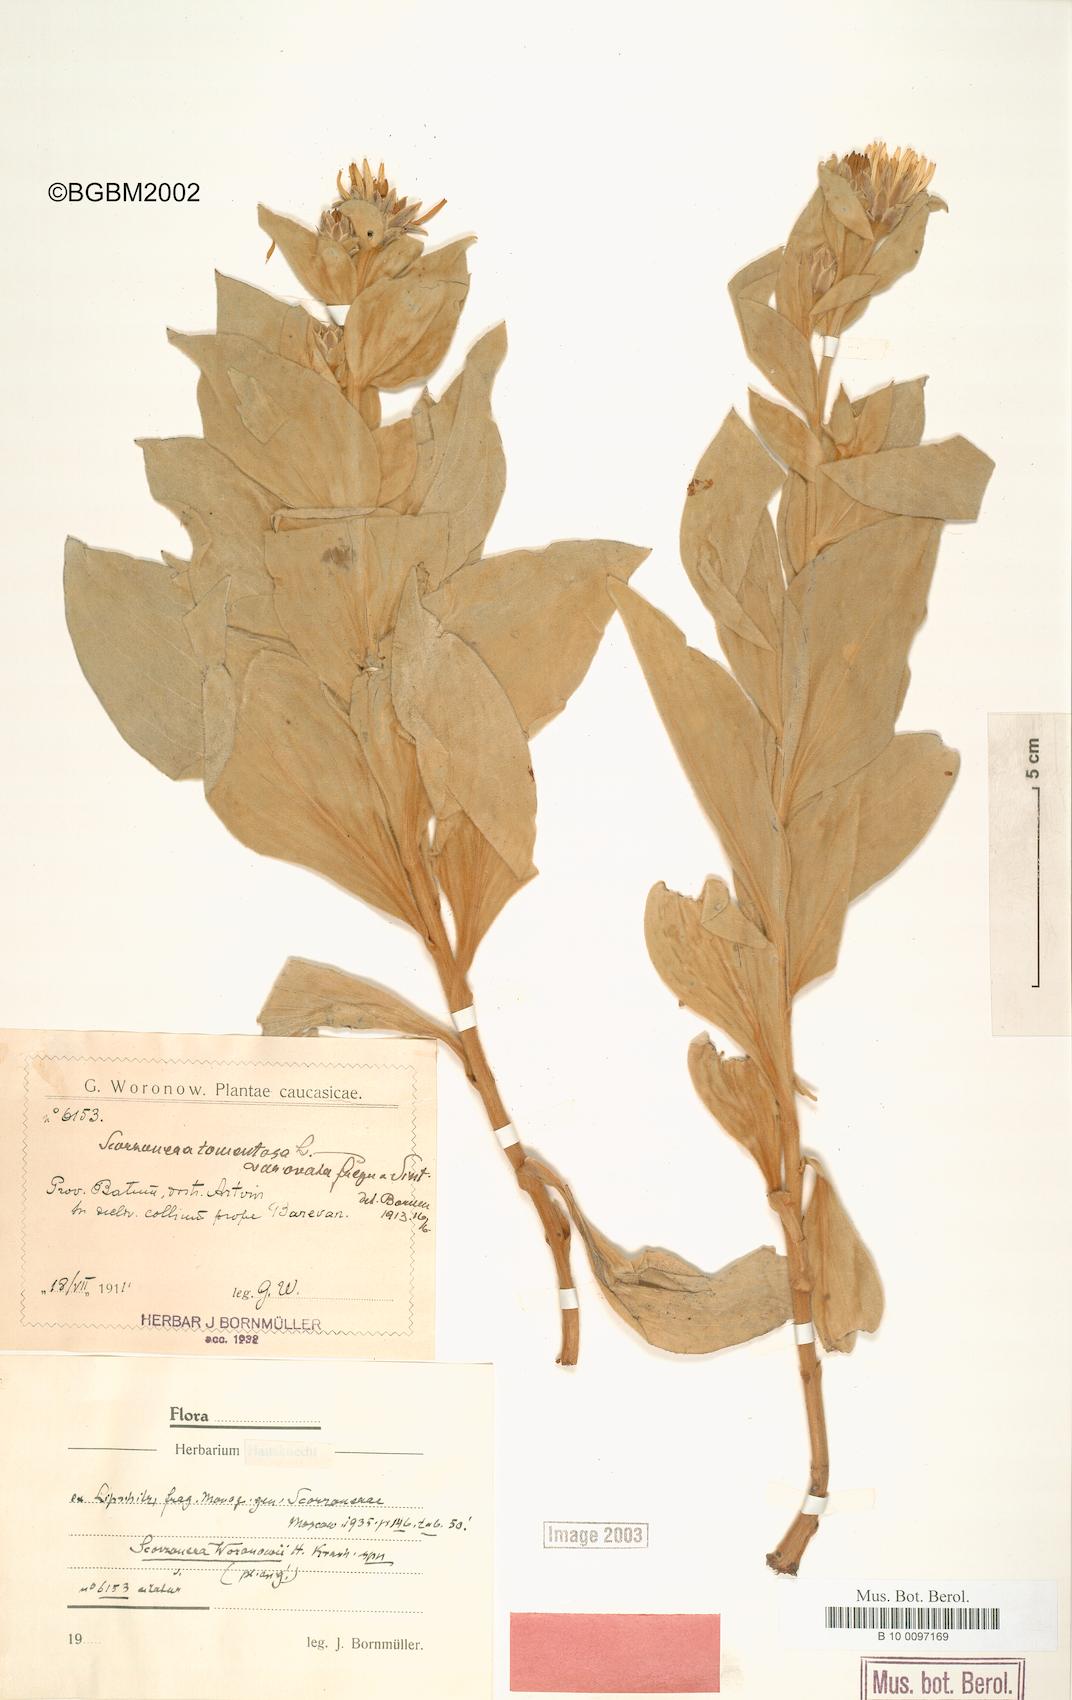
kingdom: Plantae
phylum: Tracheophyta
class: Magnoliopsida
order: Asterales
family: Asteraceae
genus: Guneria
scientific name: Guneria tomentosa
